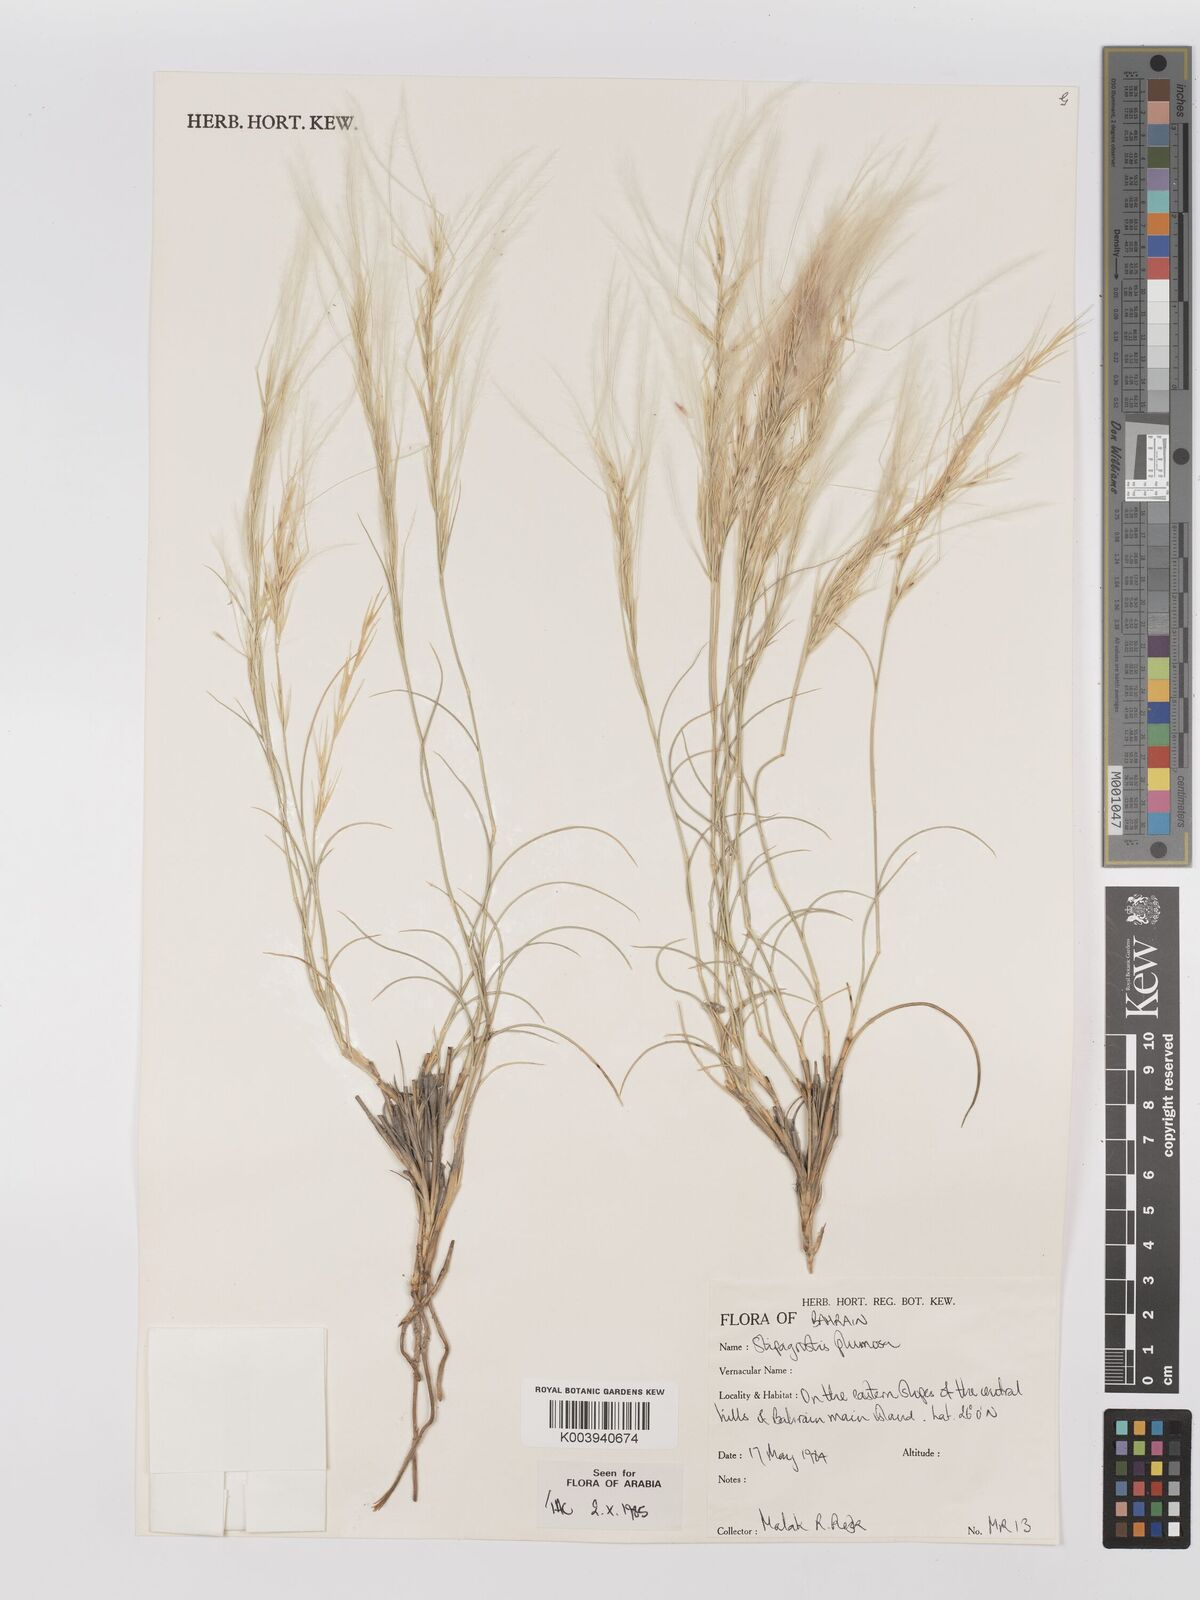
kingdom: Plantae
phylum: Tracheophyta
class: Liliopsida
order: Poales
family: Poaceae
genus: Stipagrostis
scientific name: Stipagrostis plumosa
